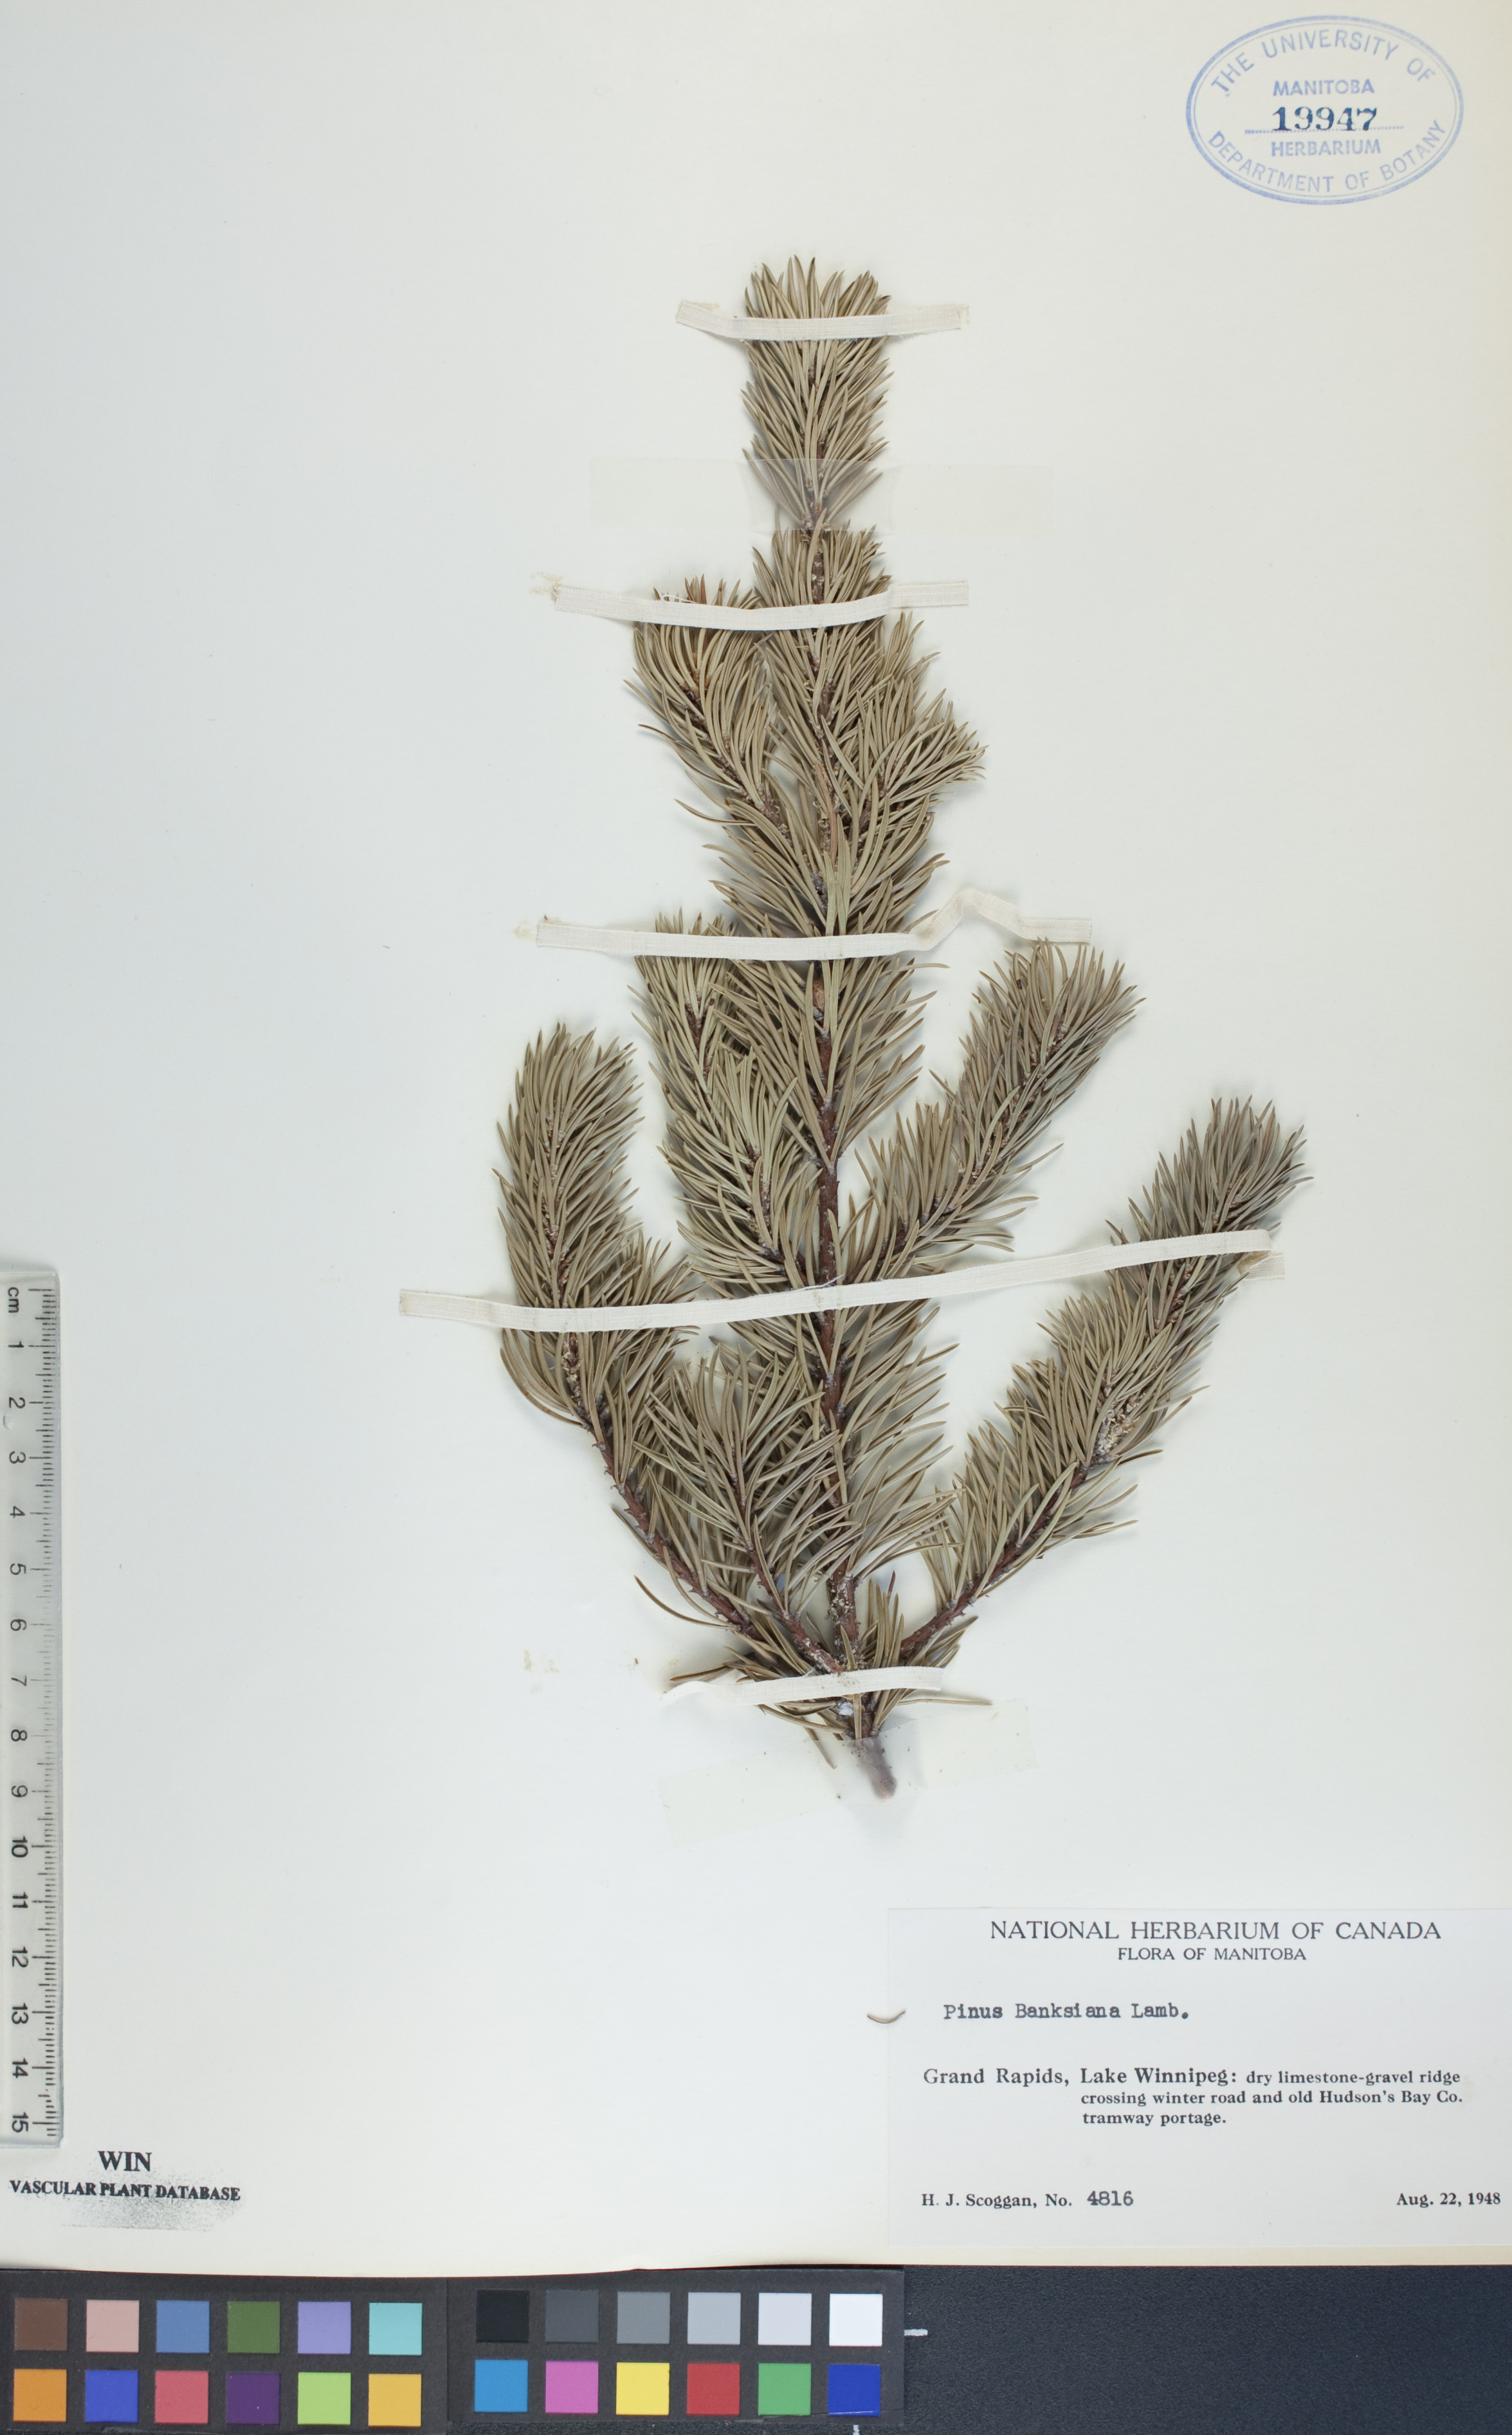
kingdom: Plantae
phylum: Tracheophyta
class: Pinopsida
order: Pinales
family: Pinaceae
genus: Pinus
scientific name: Pinus banksiana
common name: Jack pine
